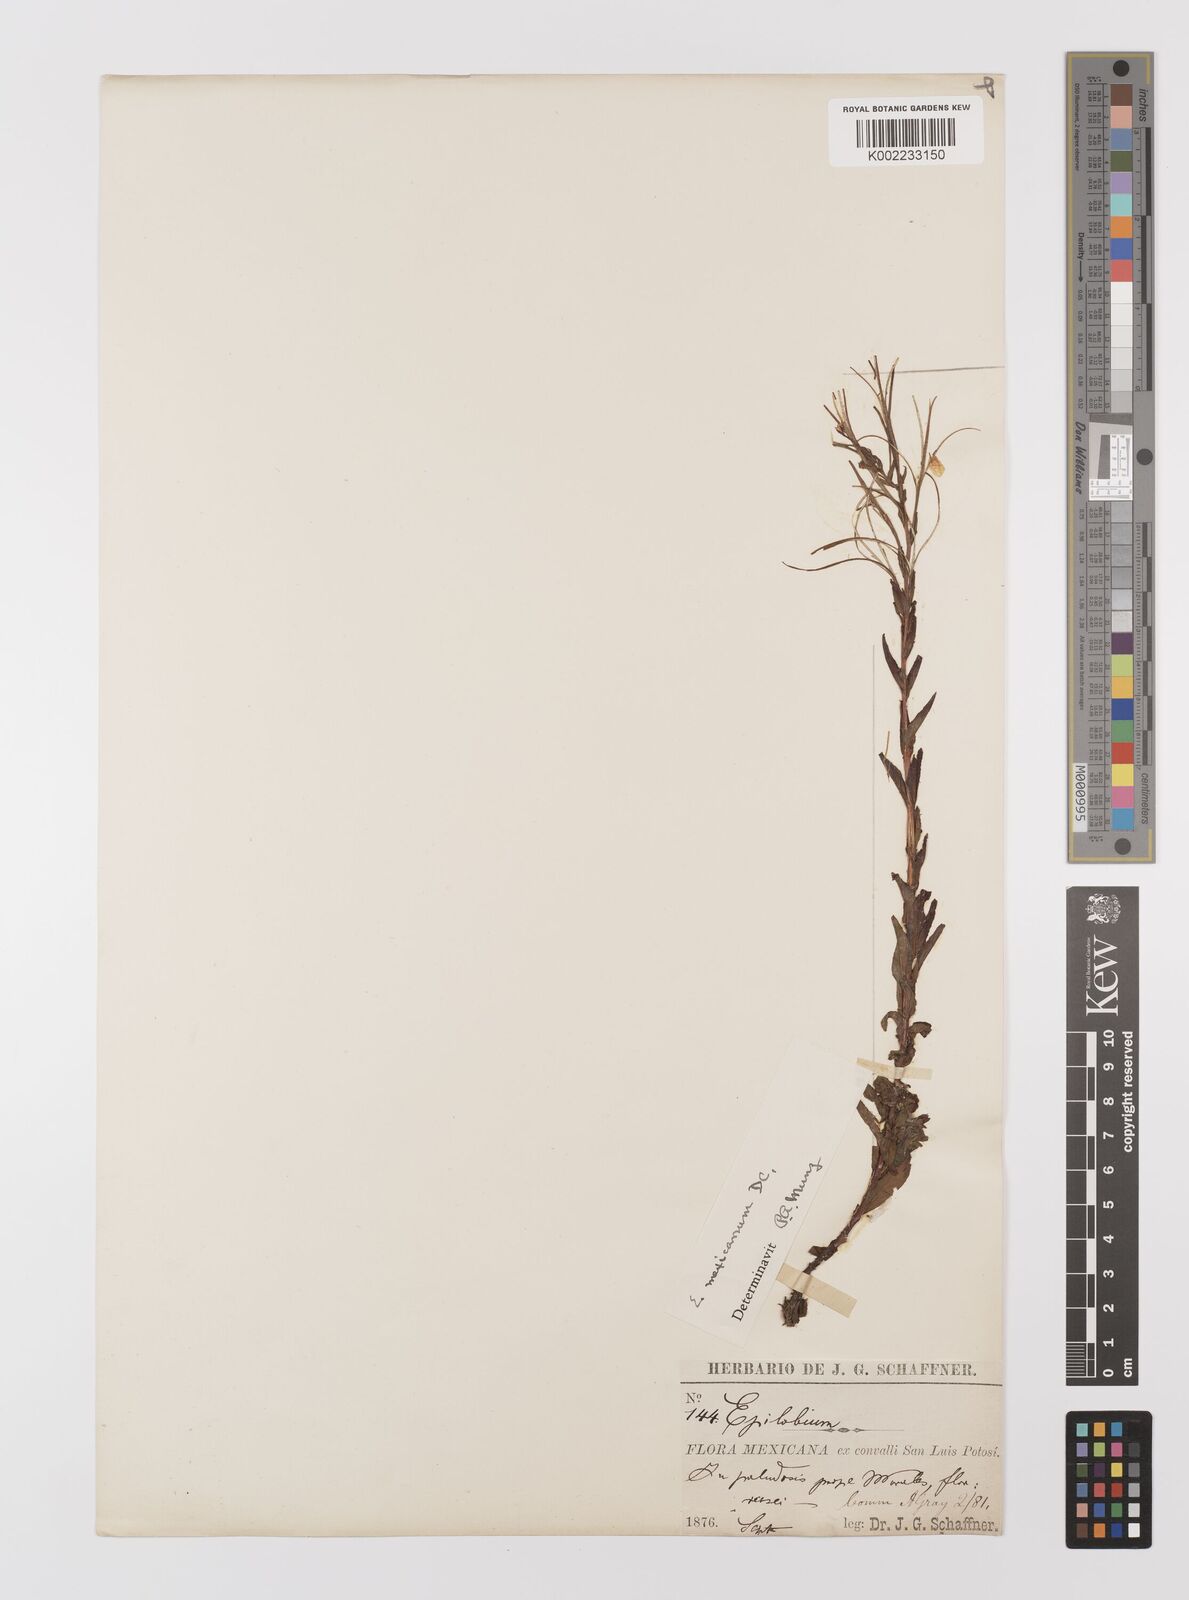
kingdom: Plantae
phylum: Tracheophyta
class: Magnoliopsida
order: Myrtales
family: Onagraceae
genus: Epilobium
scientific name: Epilobium
